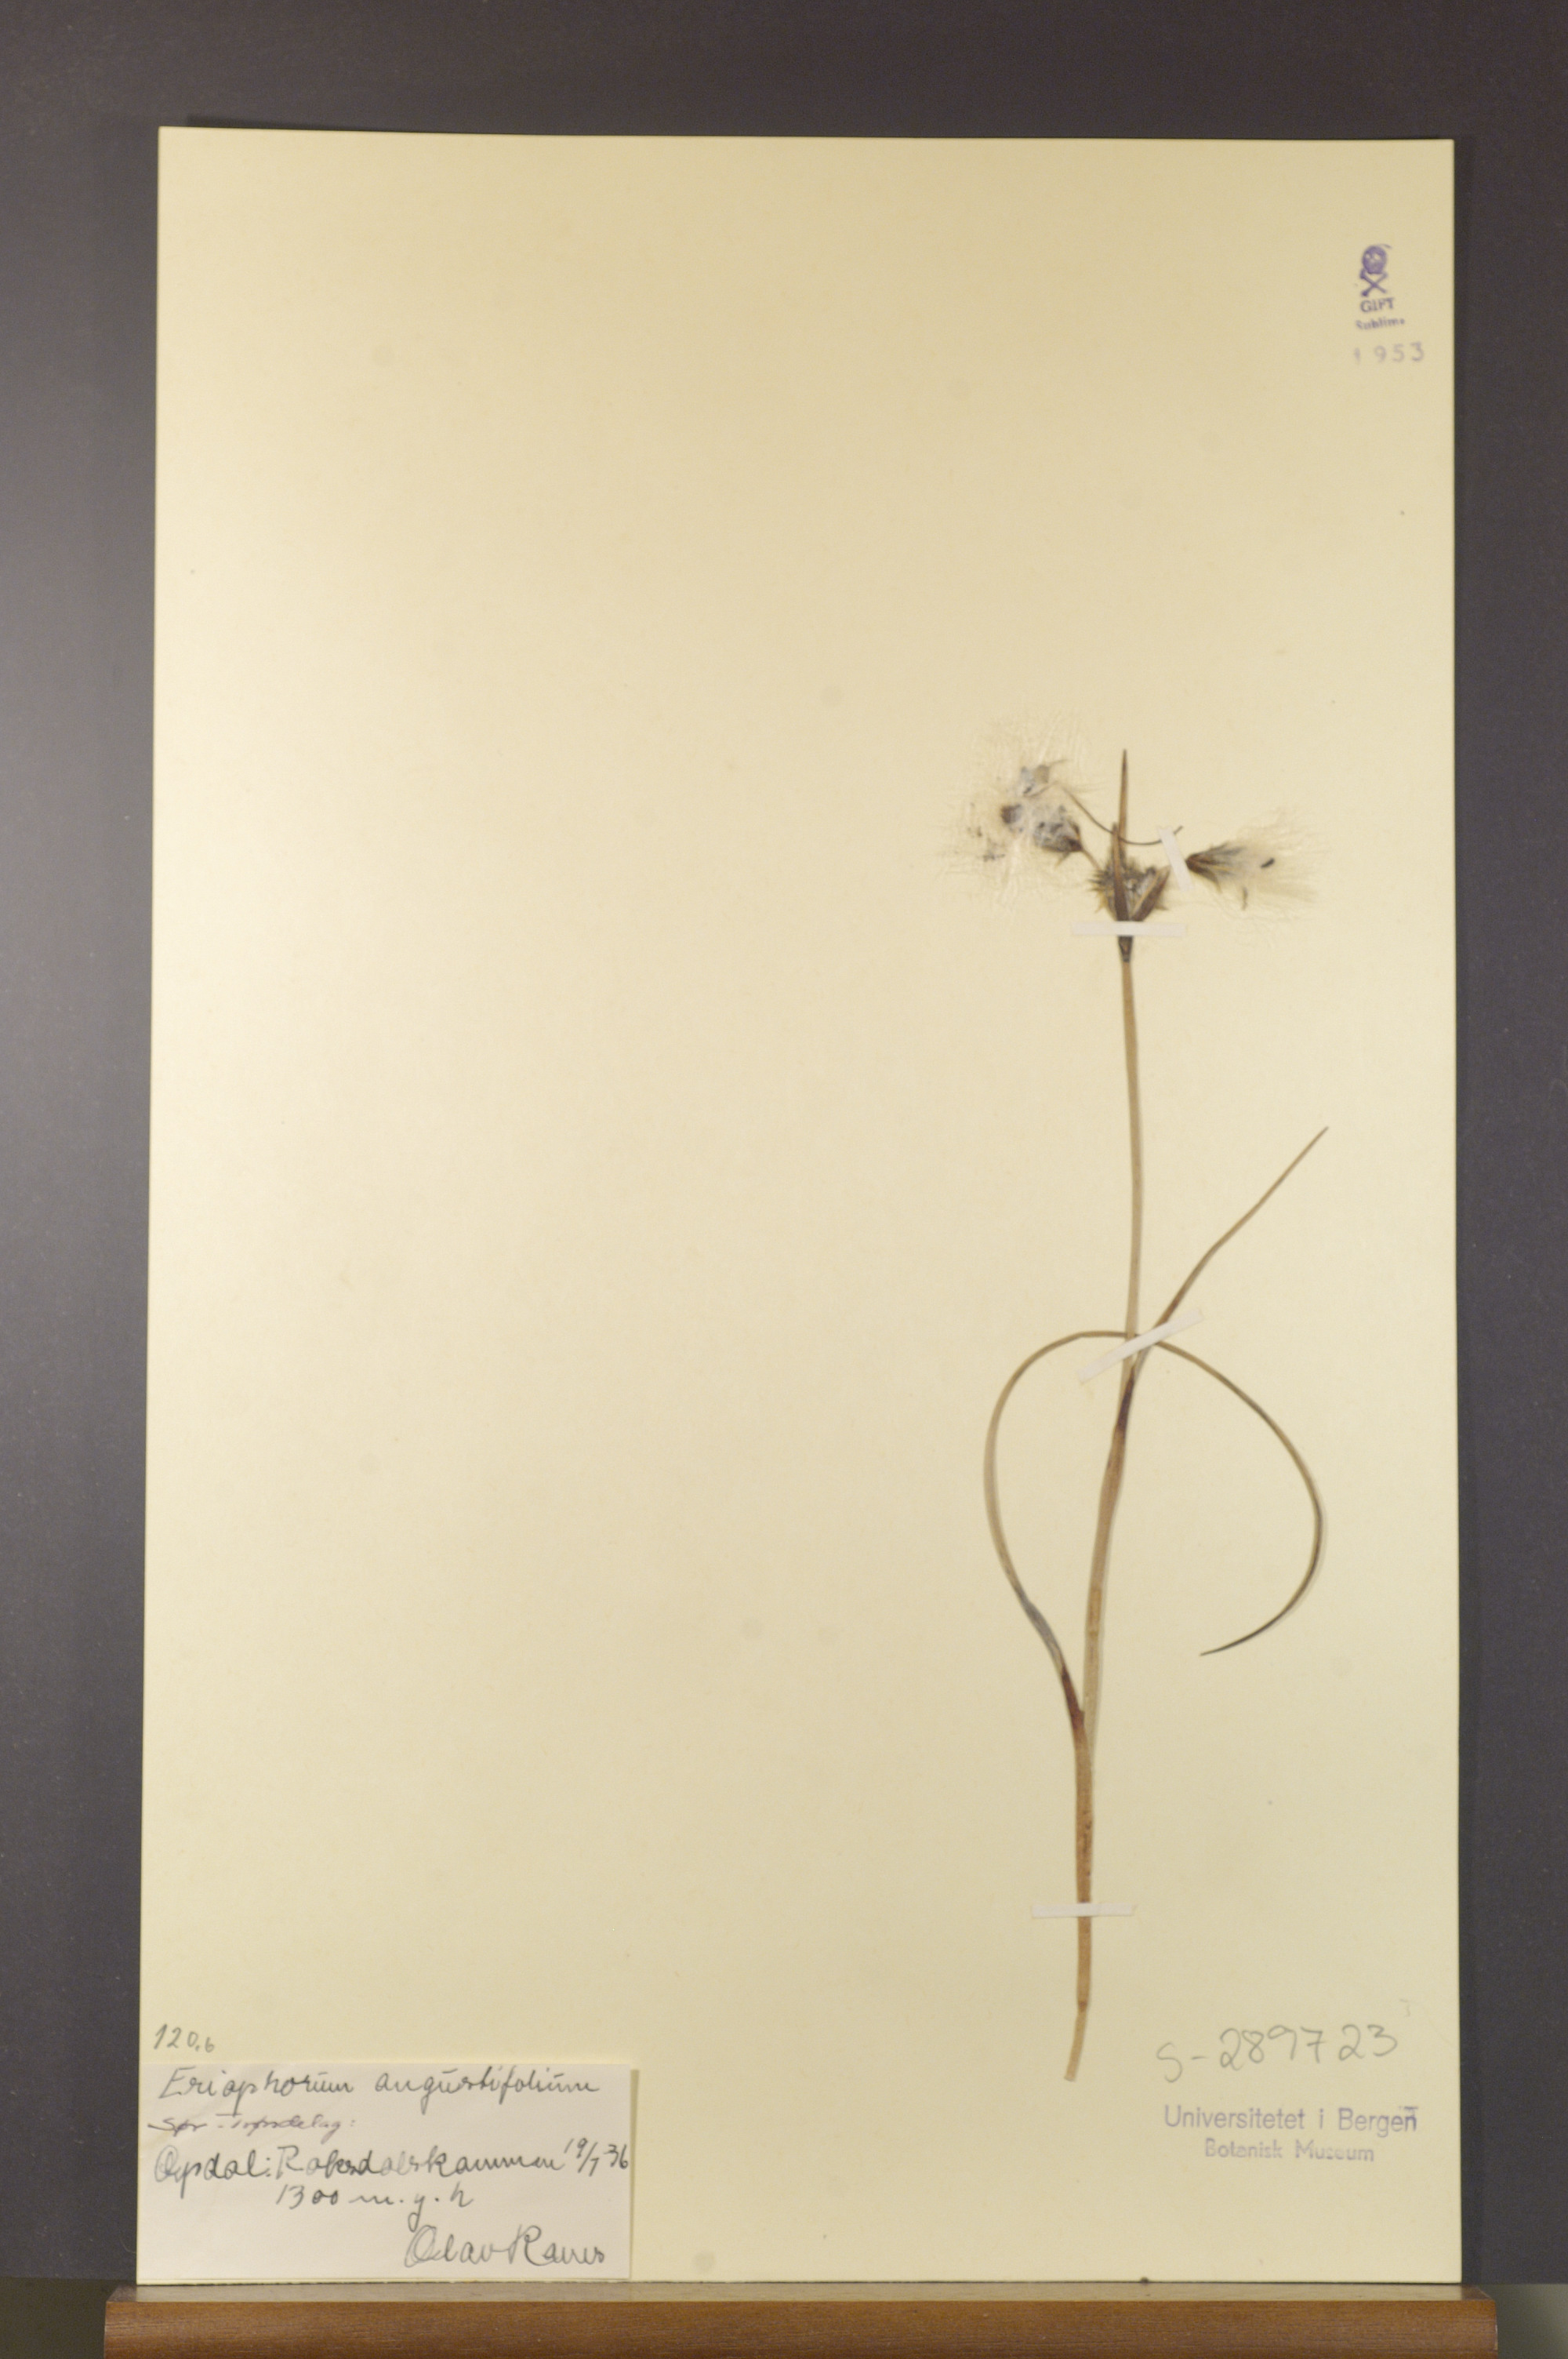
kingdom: Plantae
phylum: Tracheophyta
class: Liliopsida
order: Poales
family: Cyperaceae
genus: Eriophorum
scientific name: Eriophorum angustifolium
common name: Common cottongrass
